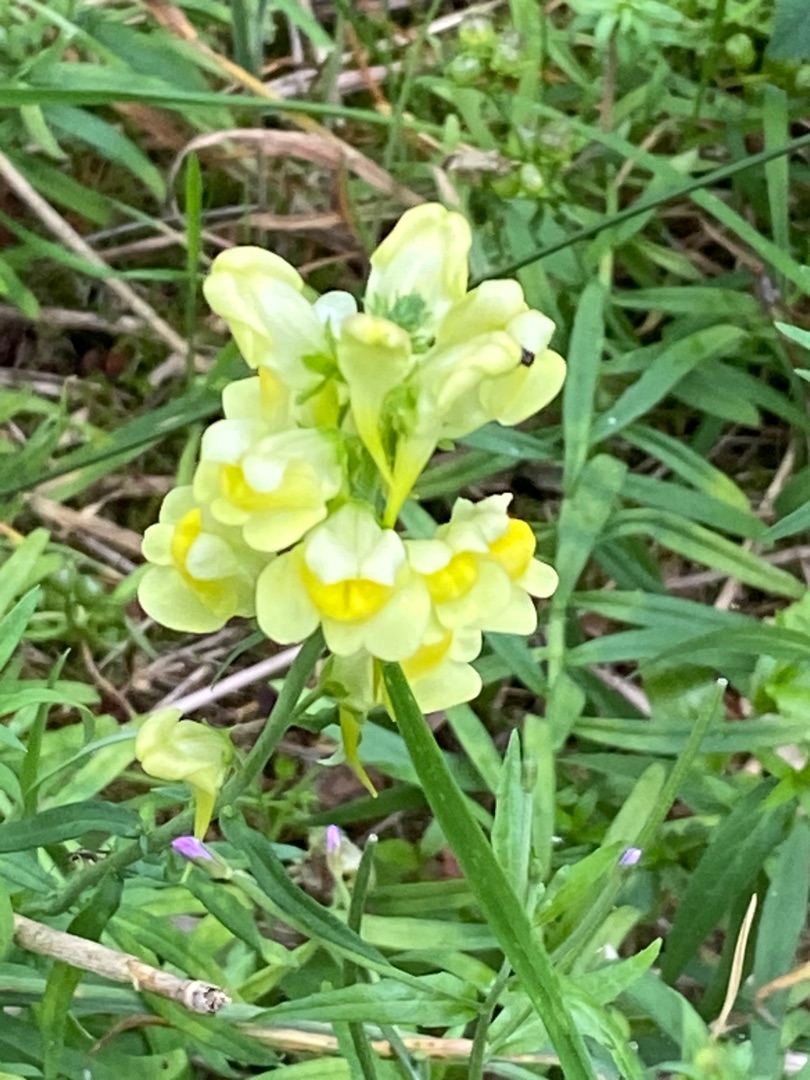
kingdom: Plantae
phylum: Tracheophyta
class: Magnoliopsida
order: Lamiales
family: Plantaginaceae
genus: Linaria
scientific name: Linaria vulgaris
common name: Almindelig torskemund
